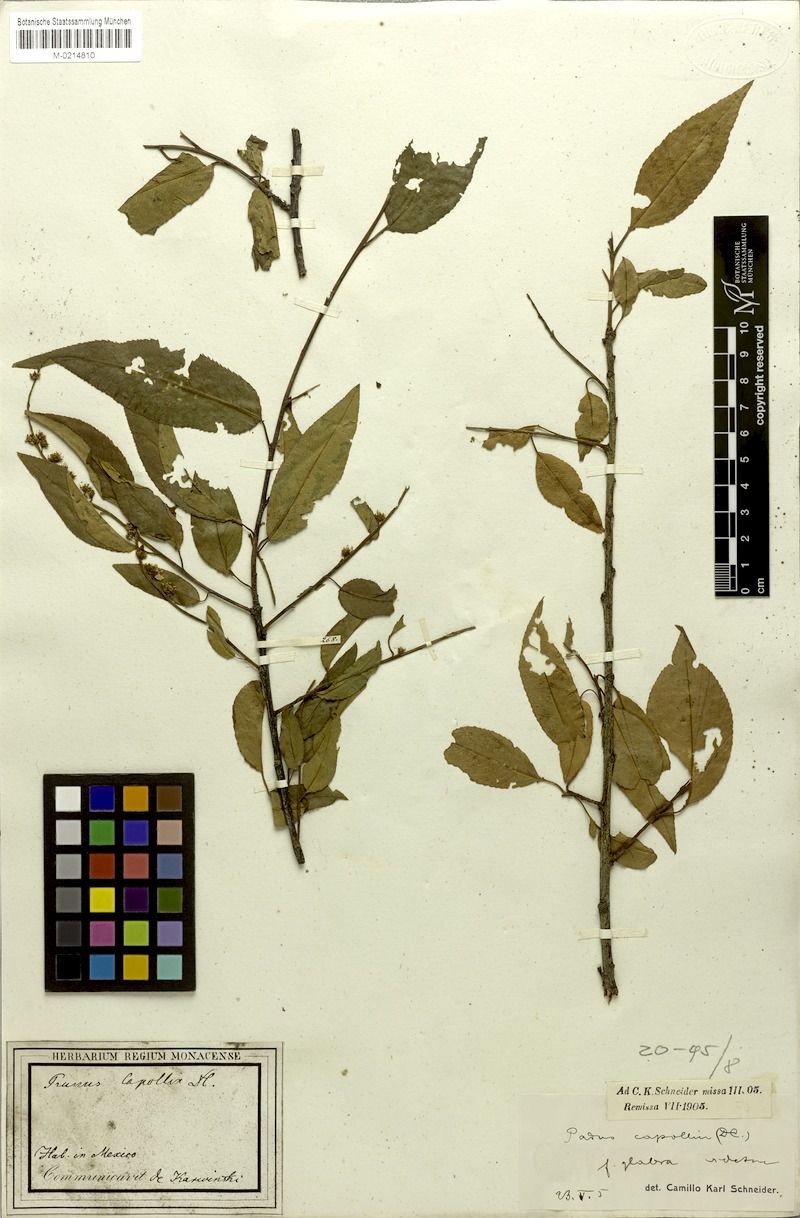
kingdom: Plantae
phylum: Tracheophyta
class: Magnoliopsida
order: Rosales
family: Rosaceae
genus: Prunus
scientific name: Prunus serotina
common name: Black cherry
